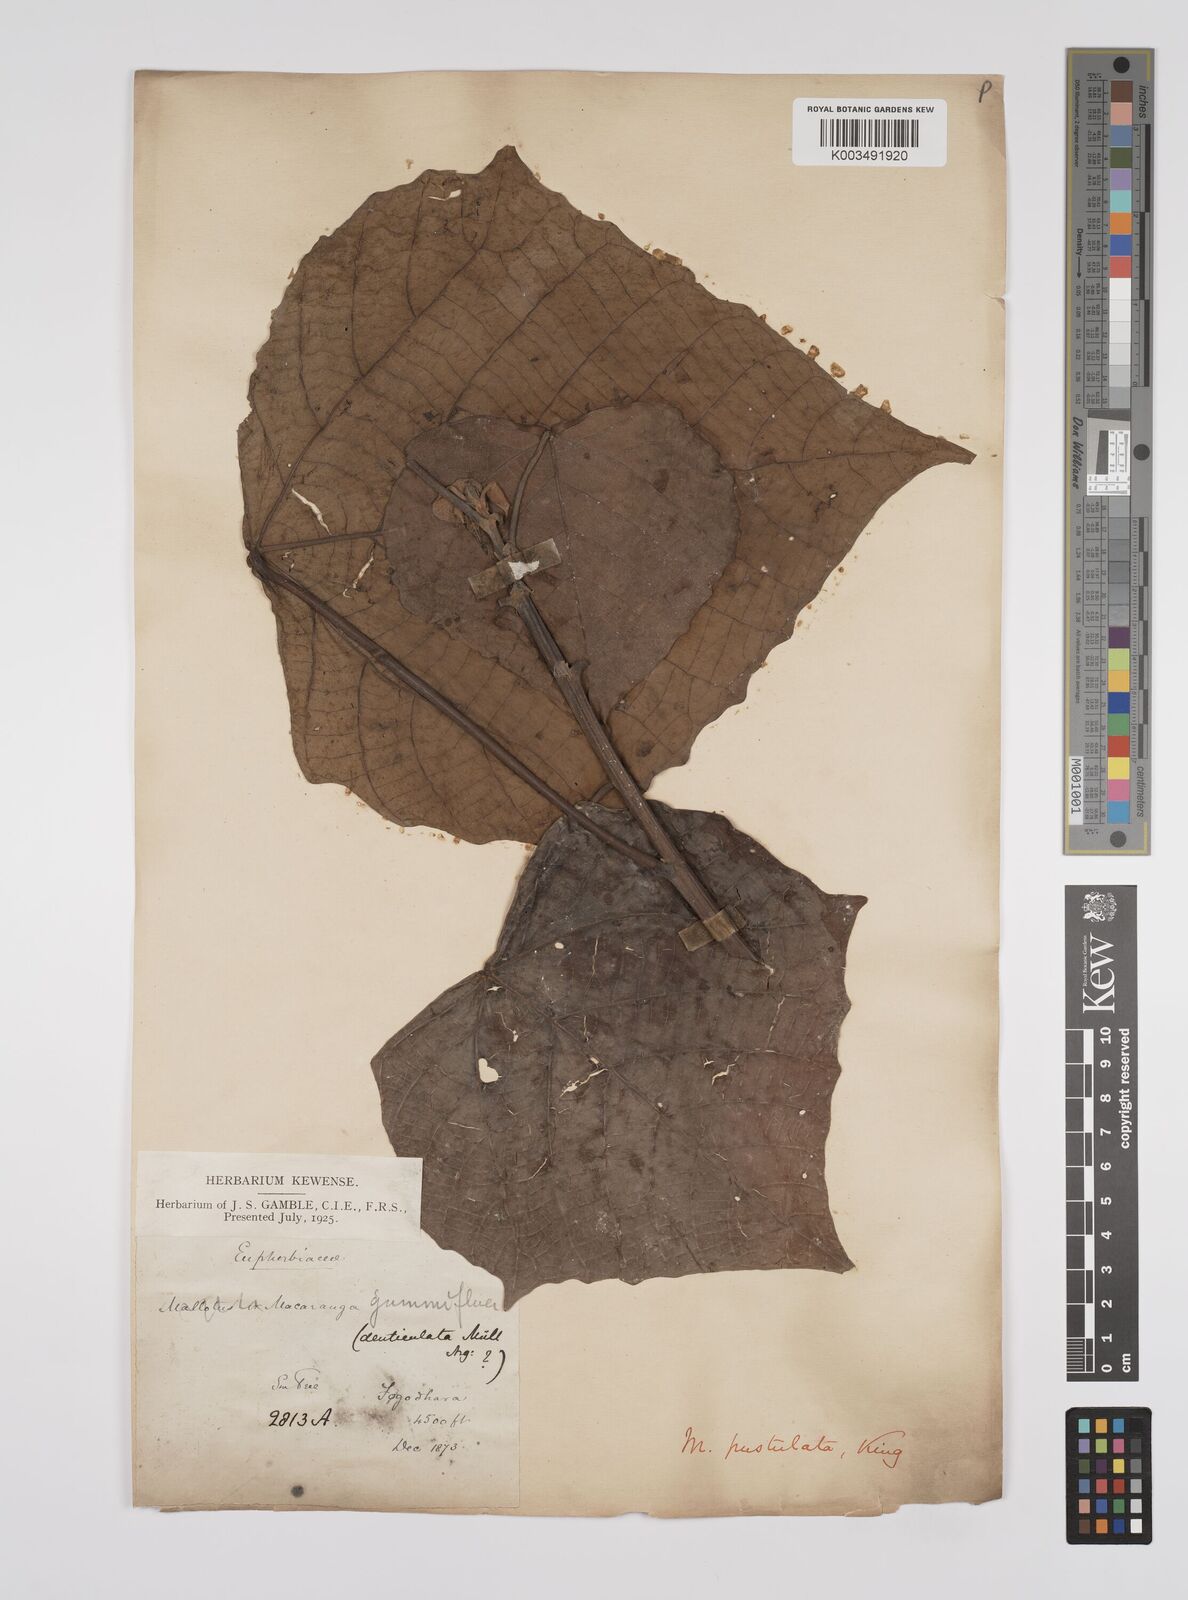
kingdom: Plantae
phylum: Tracheophyta
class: Magnoliopsida
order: Malpighiales
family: Euphorbiaceae
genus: Macaranga
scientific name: Macaranga denticulata
